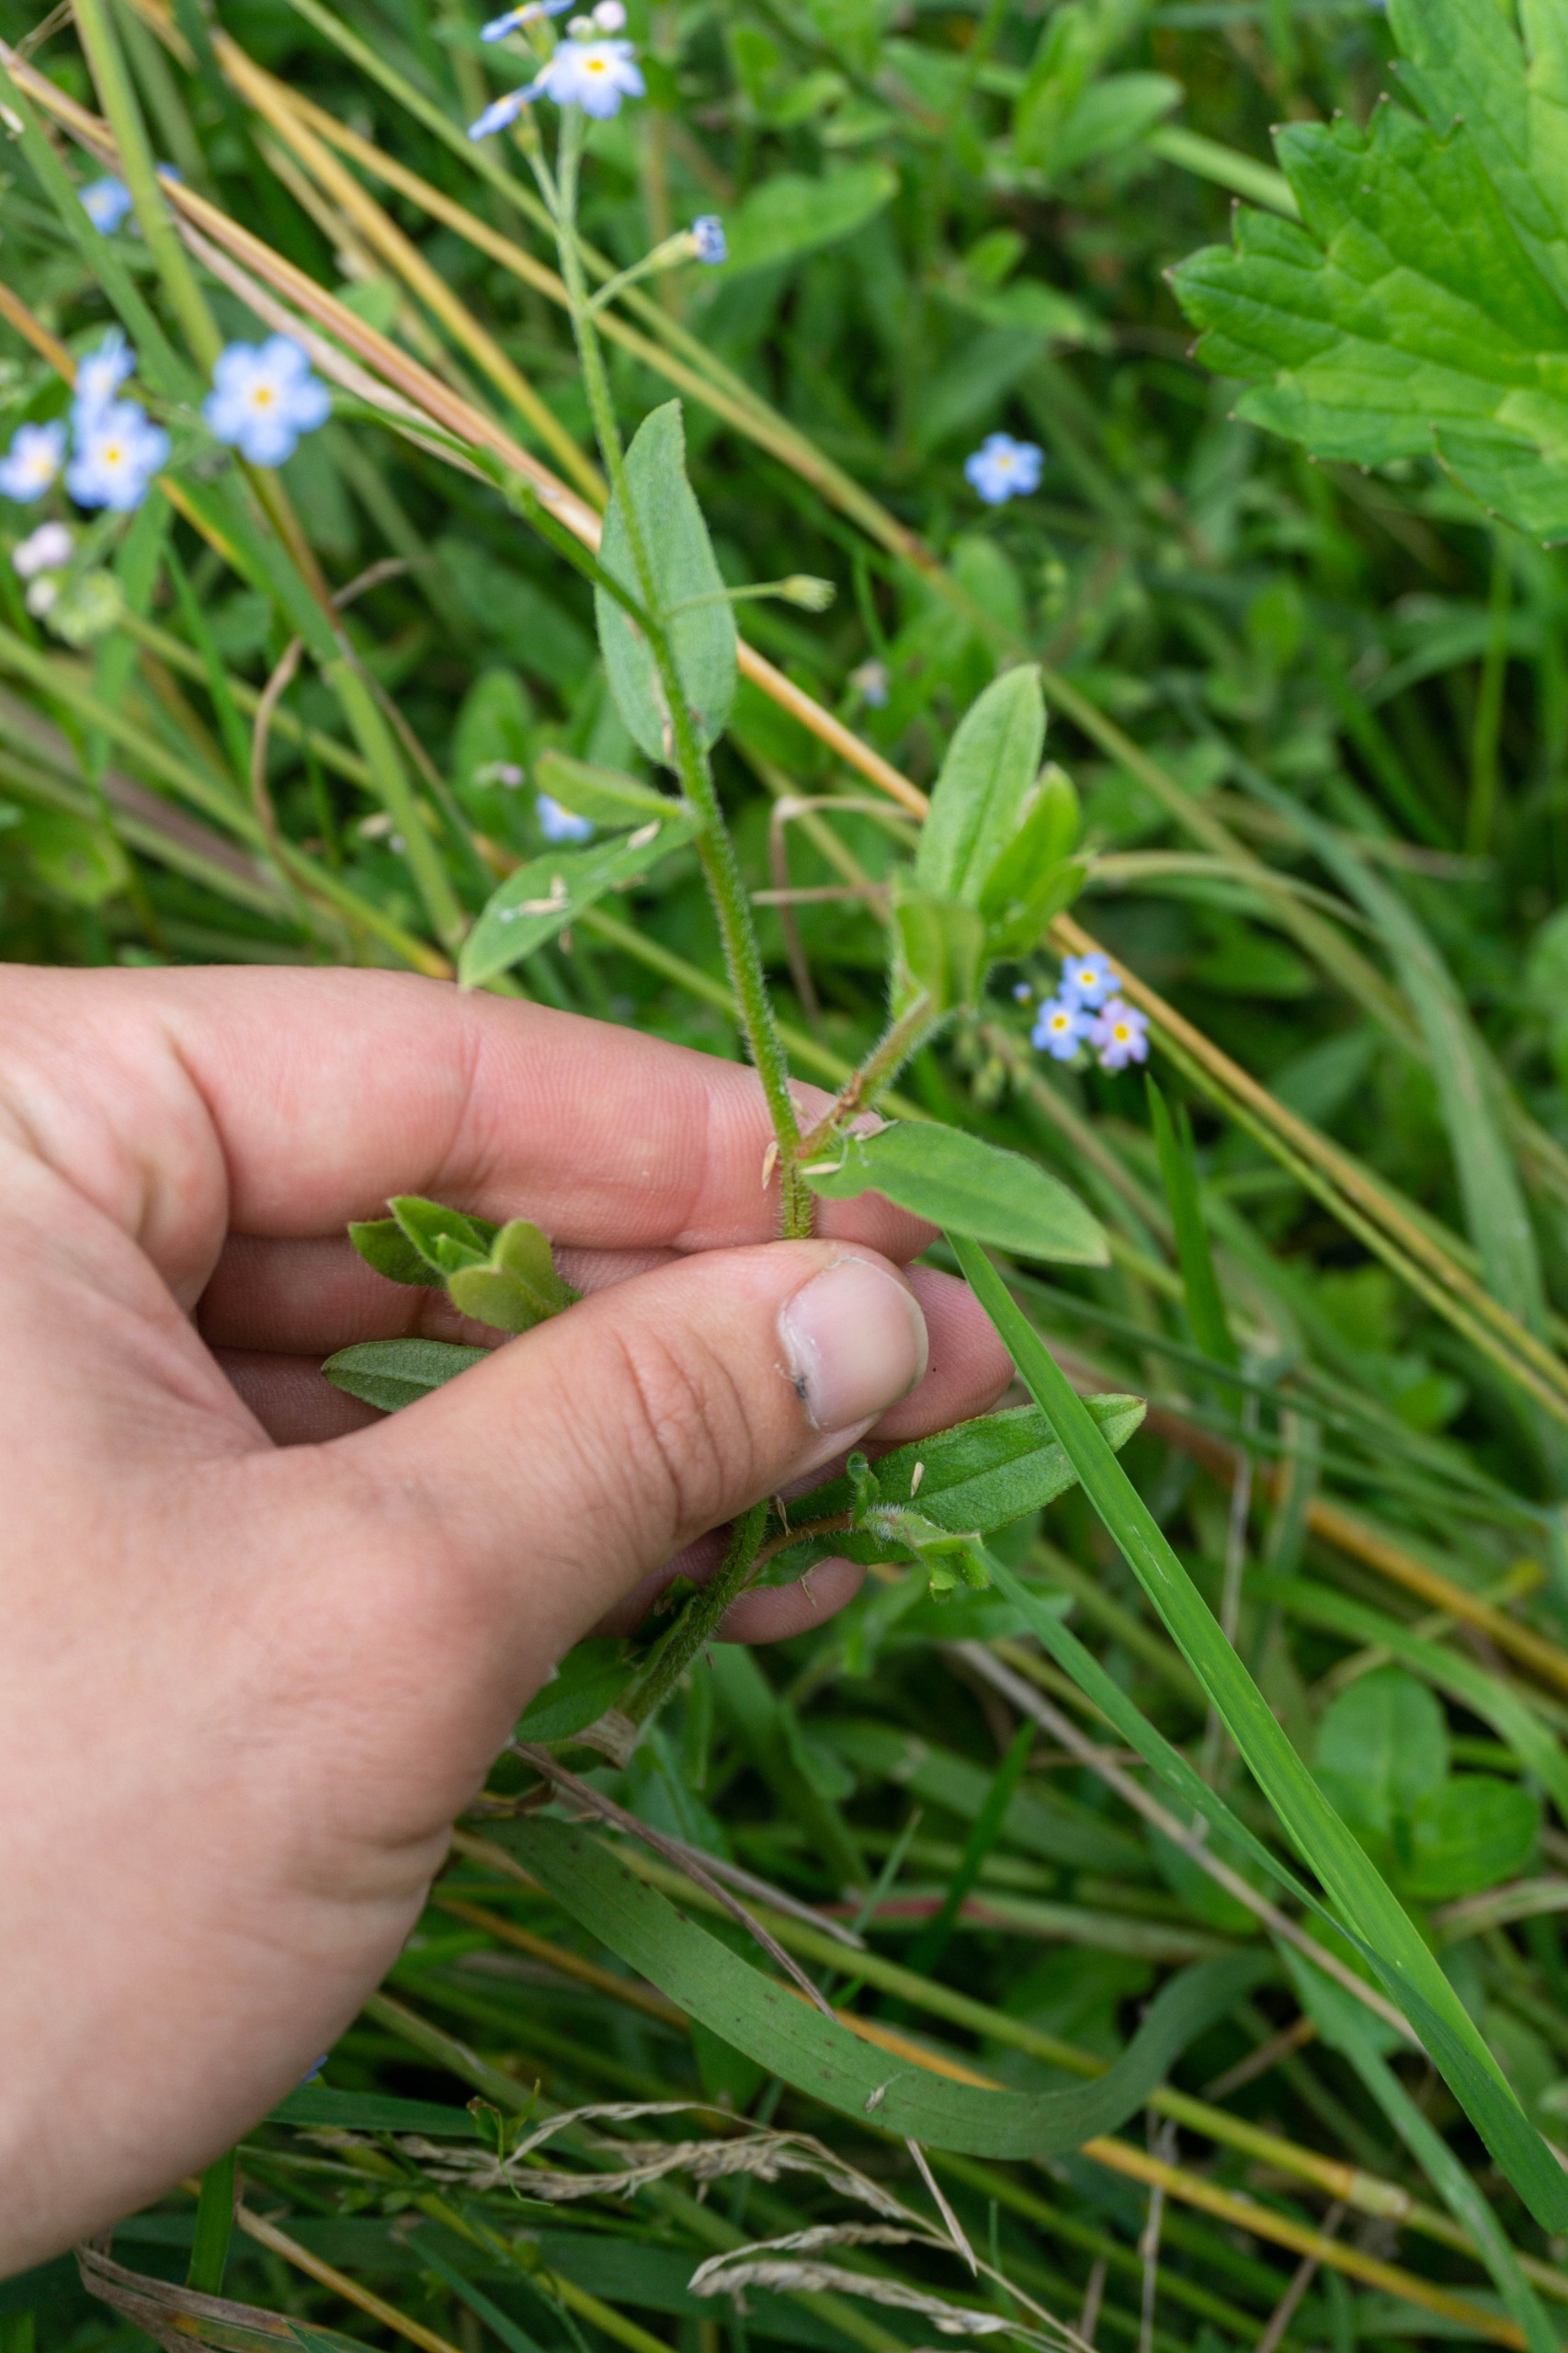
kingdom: Plantae
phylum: Tracheophyta
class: Magnoliopsida
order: Boraginales
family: Boraginaceae
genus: Myosotis
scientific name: Myosotis scorpioides
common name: Eng-forglemmigej
